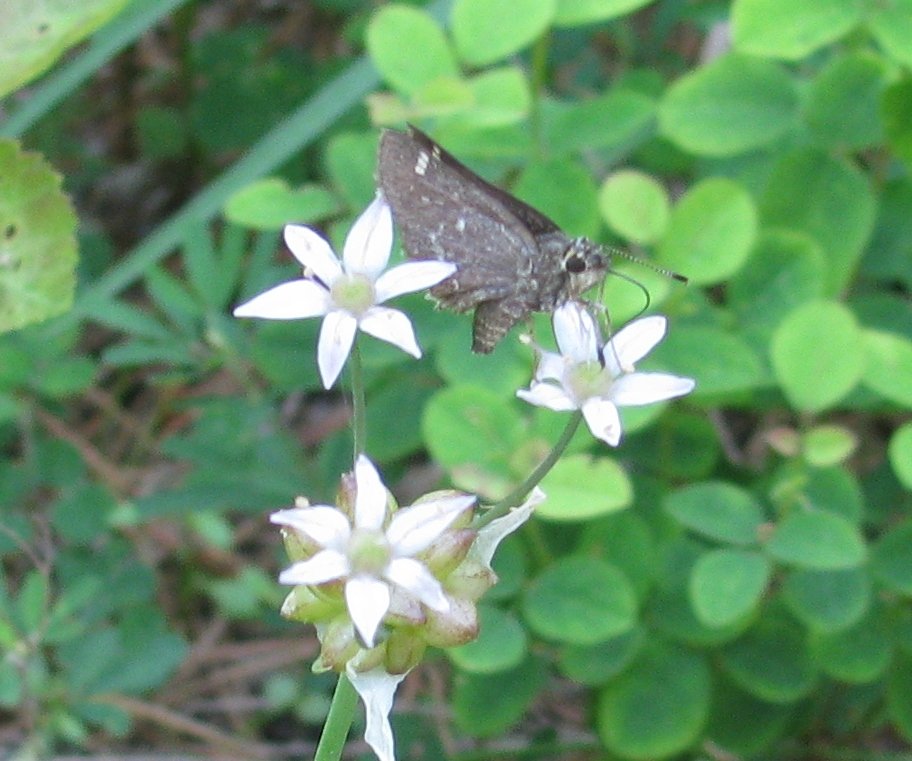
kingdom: Animalia
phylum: Arthropoda
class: Insecta
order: Lepidoptera
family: Hesperiidae
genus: Mastor
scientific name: Mastor hegon
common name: Pepper and Salt Skipper
